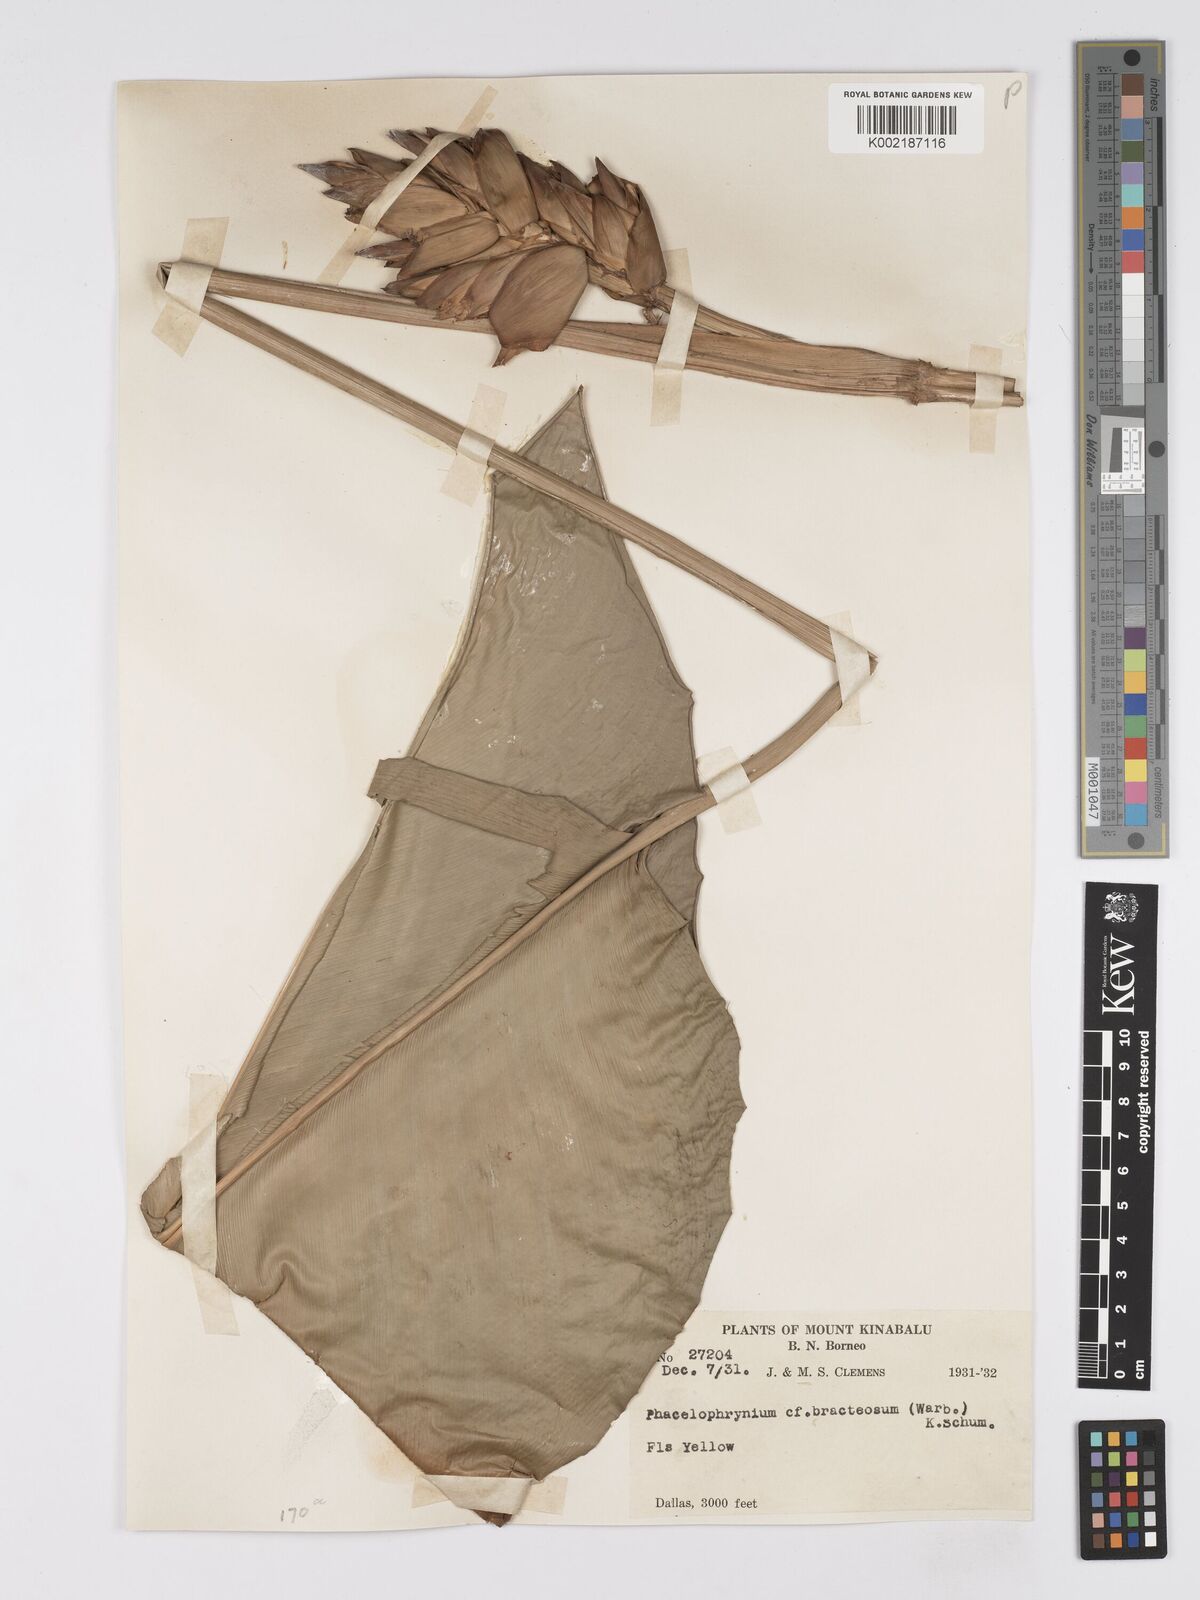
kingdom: Plantae
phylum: Tracheophyta
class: Liliopsida
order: Zingiberales
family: Marantaceae
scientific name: Marantaceae
